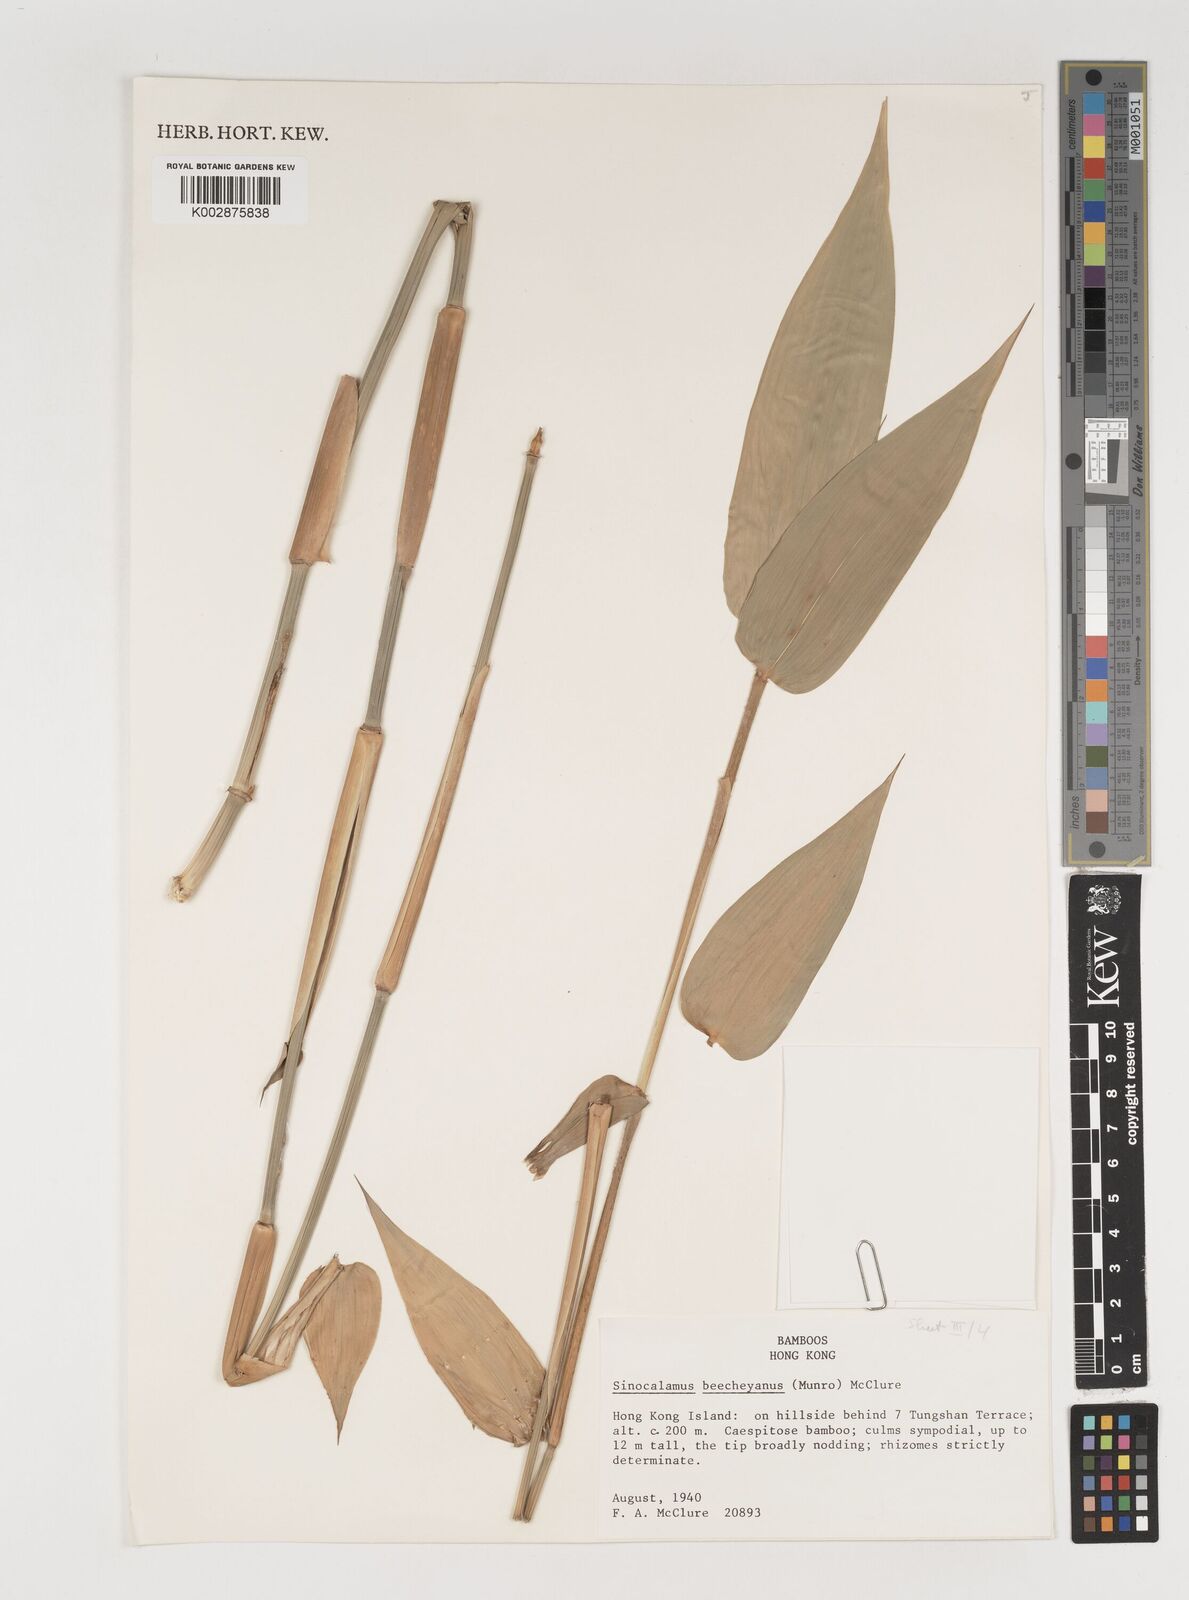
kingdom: Plantae
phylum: Tracheophyta
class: Liliopsida
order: Poales
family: Poaceae
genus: Bambusa
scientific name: Bambusa beecheyana
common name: Beechey's bamboo
